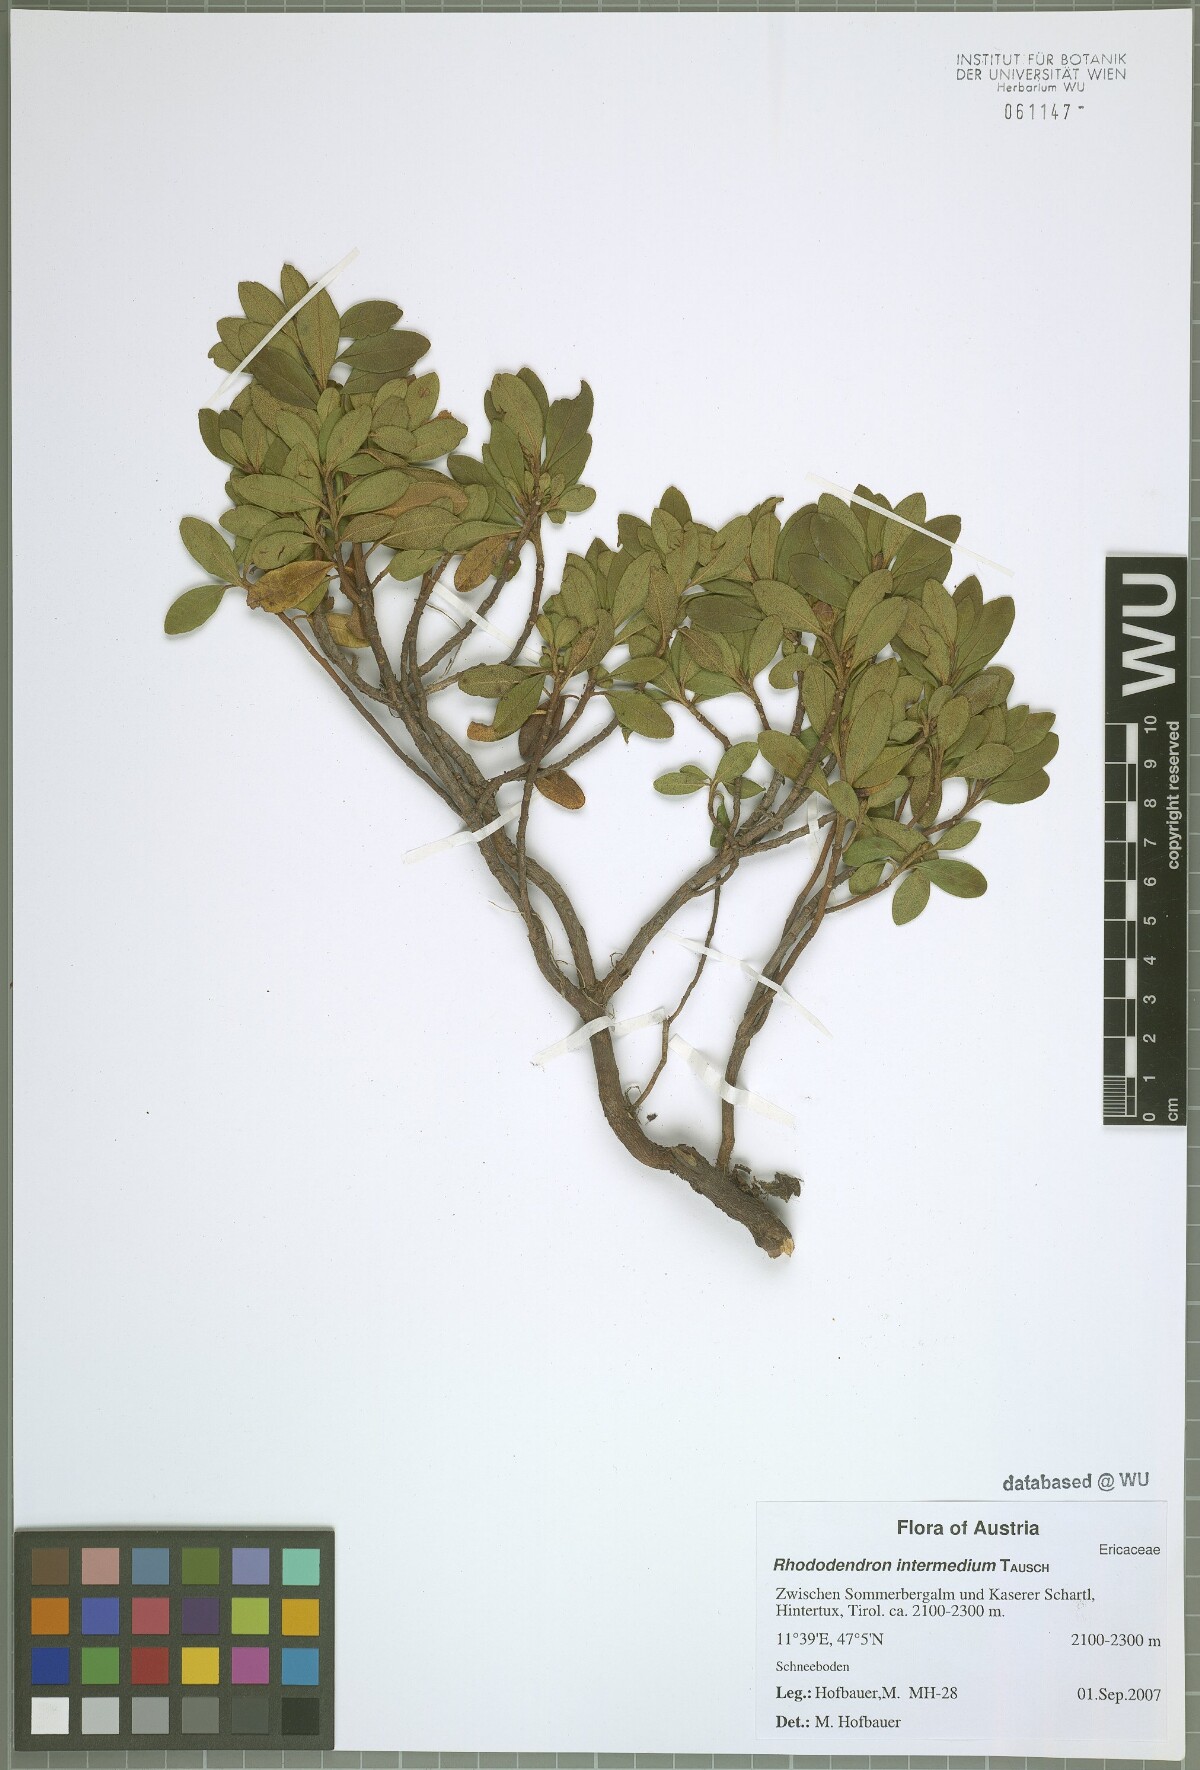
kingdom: Plantae
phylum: Tracheophyta
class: Magnoliopsida
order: Ericales
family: Ericaceae
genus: Rhododendron
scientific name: Rhododendron intermedium
